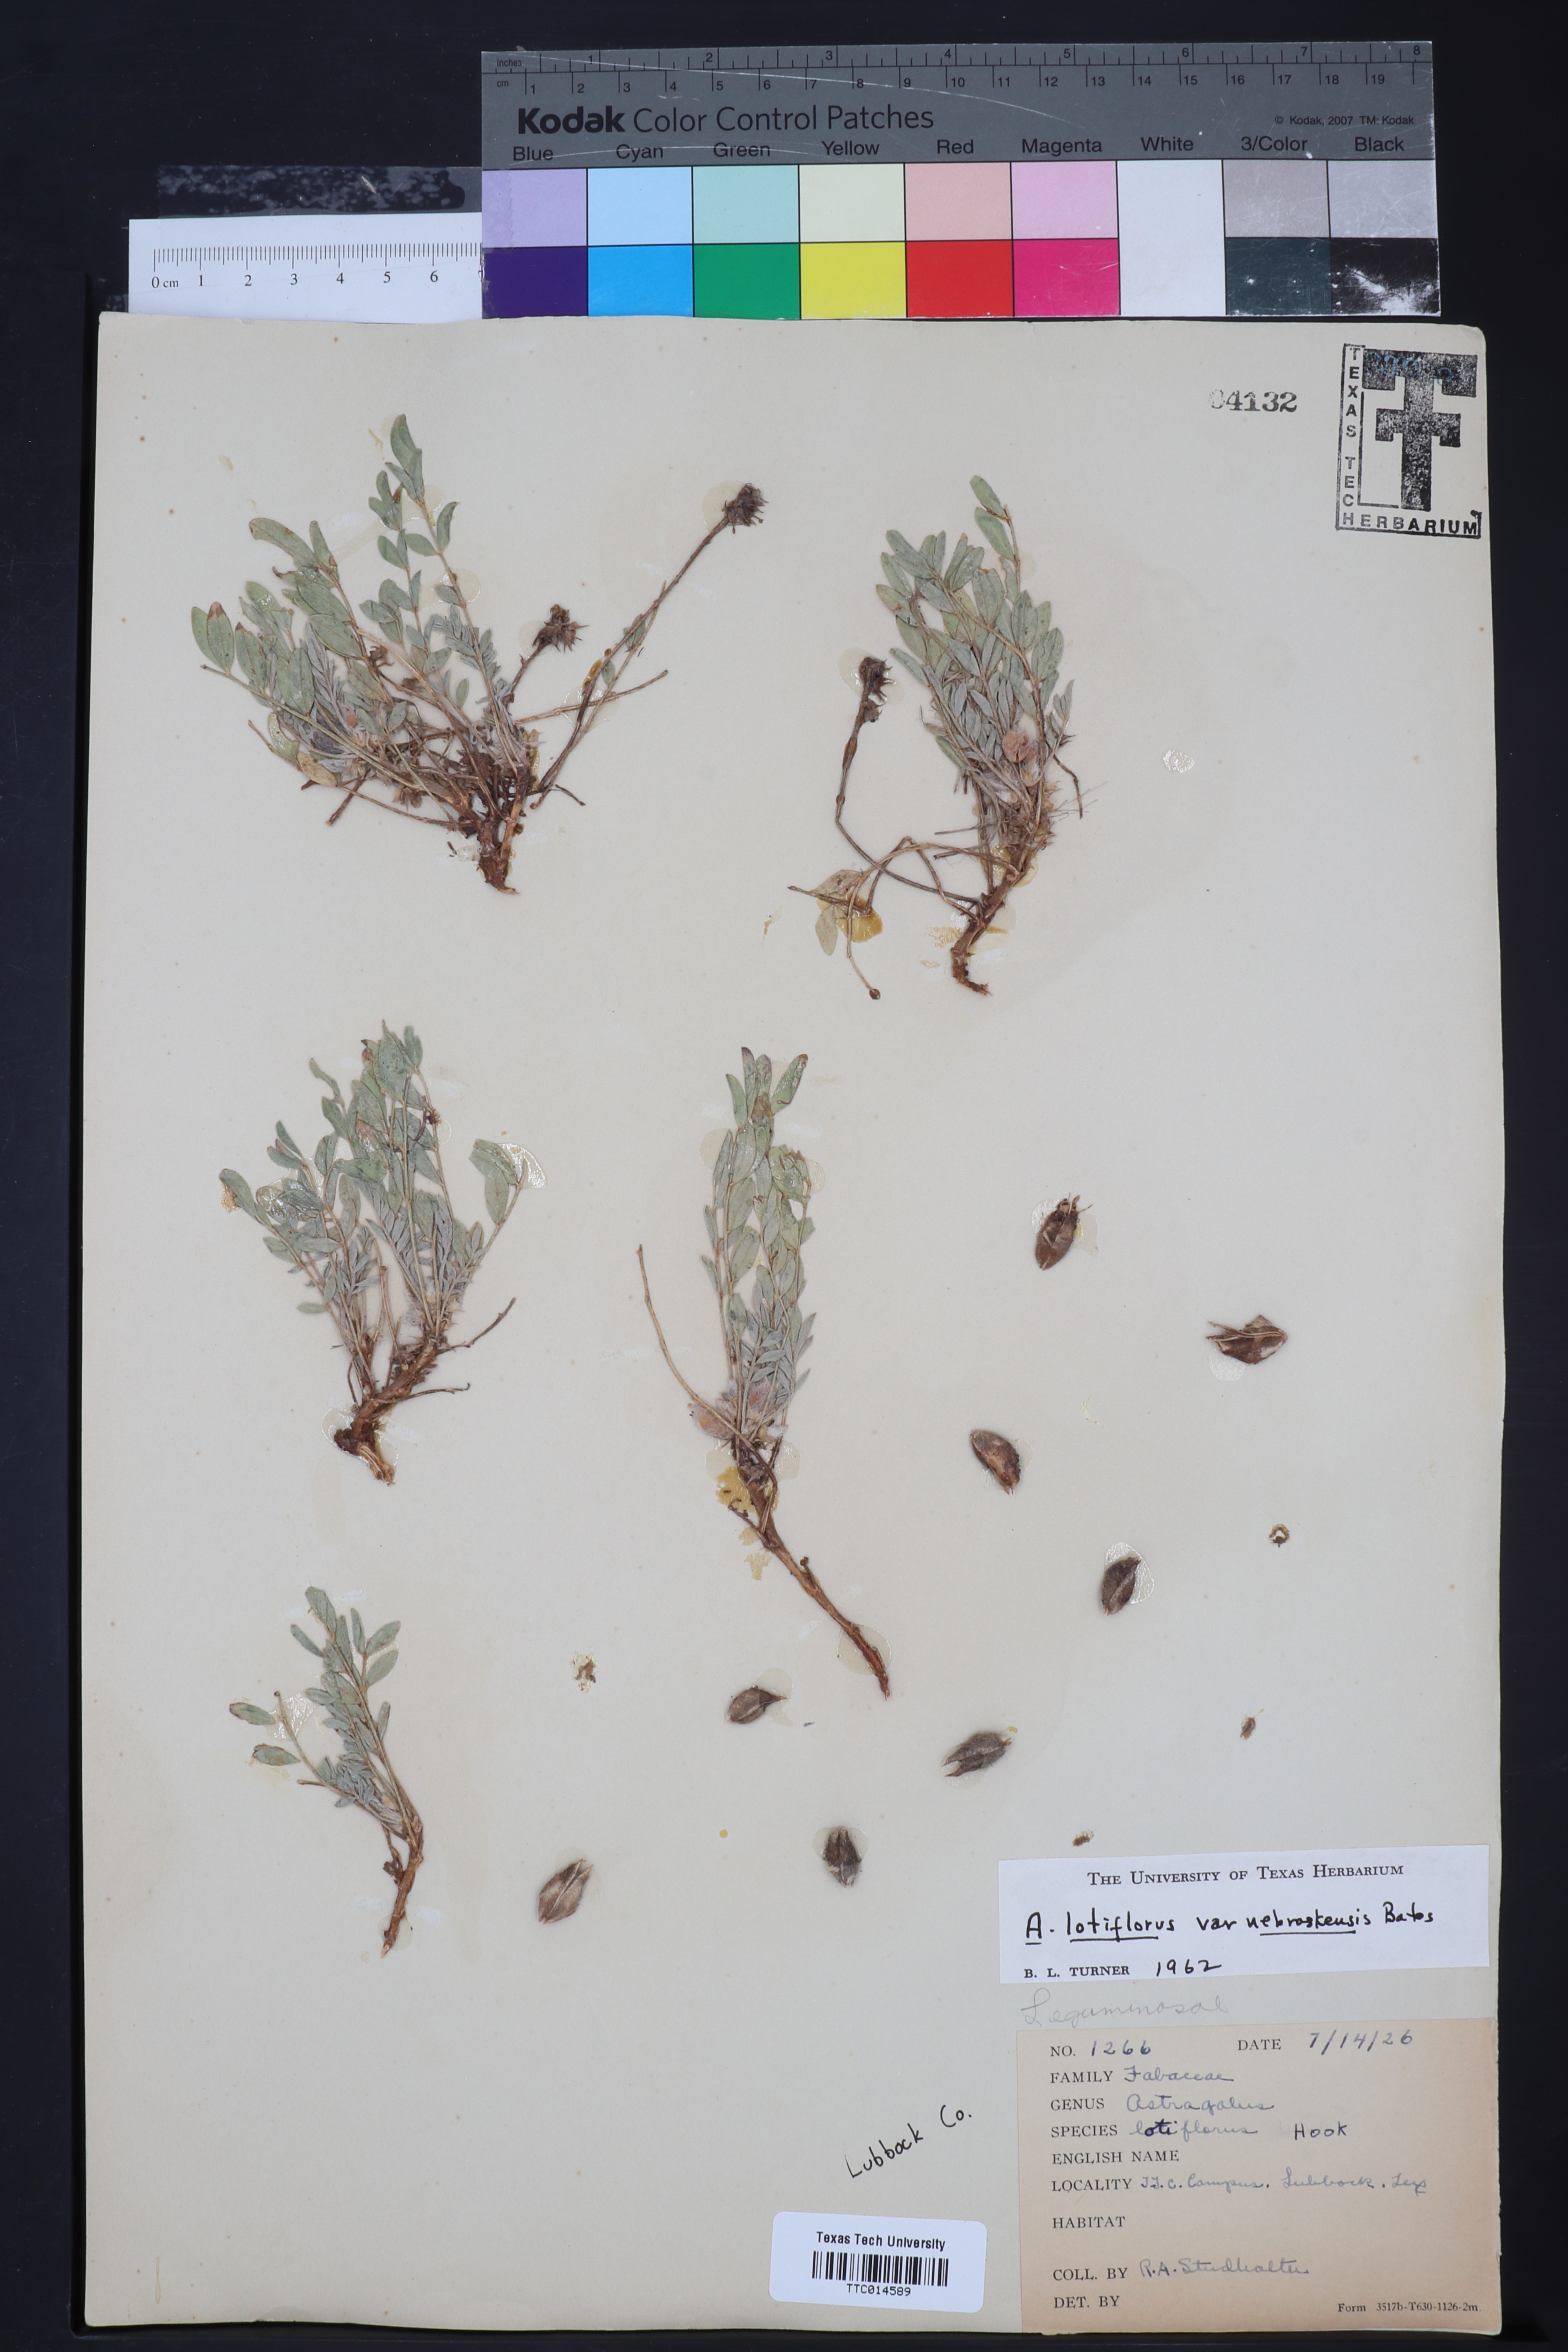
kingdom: Plantae
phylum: Tracheophyta
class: Magnoliopsida
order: Fabales
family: Fabaceae
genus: Astragalus
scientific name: Astragalus lotiflorus
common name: Lotus milk-vetch
